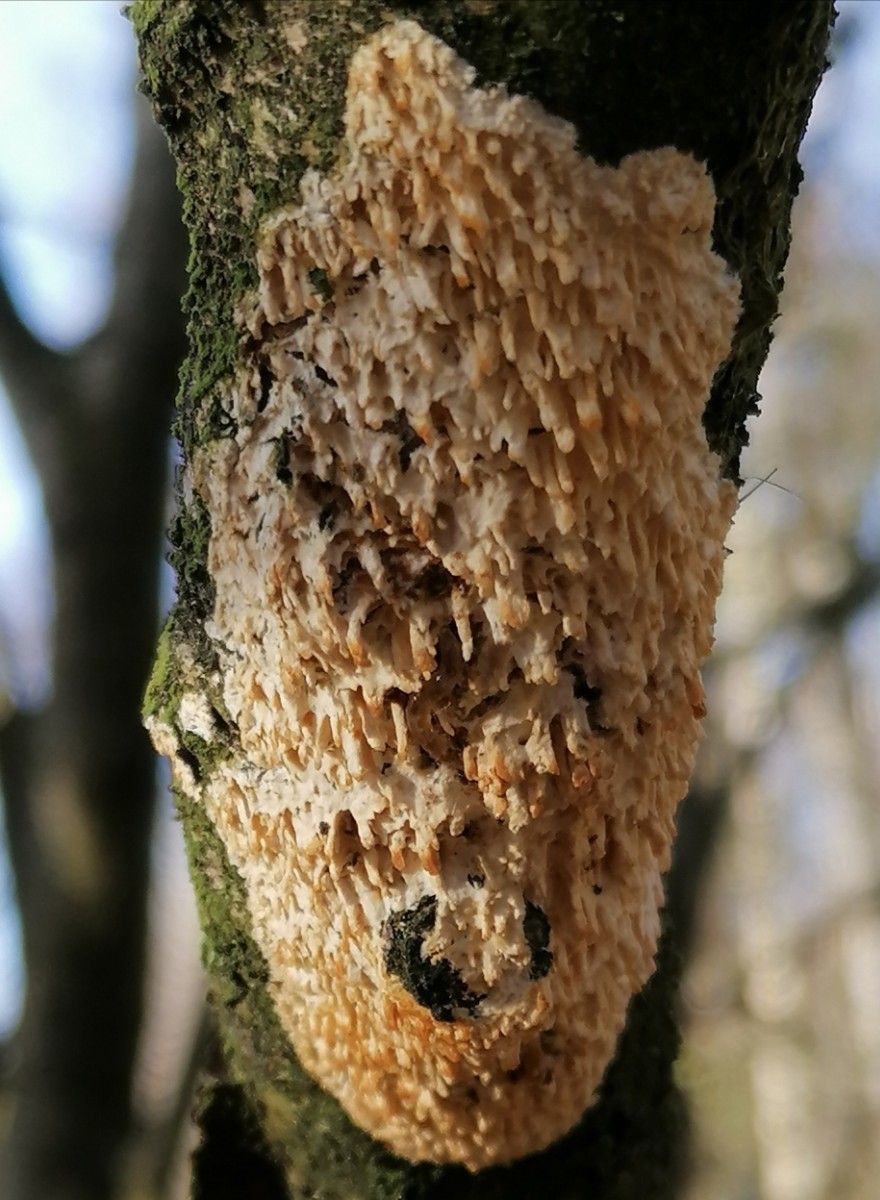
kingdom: Fungi
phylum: Basidiomycota
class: Agaricomycetes
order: Hymenochaetales
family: Schizoporaceae
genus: Xylodon
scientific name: Xylodon radula
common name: grovtandet kalkskind
